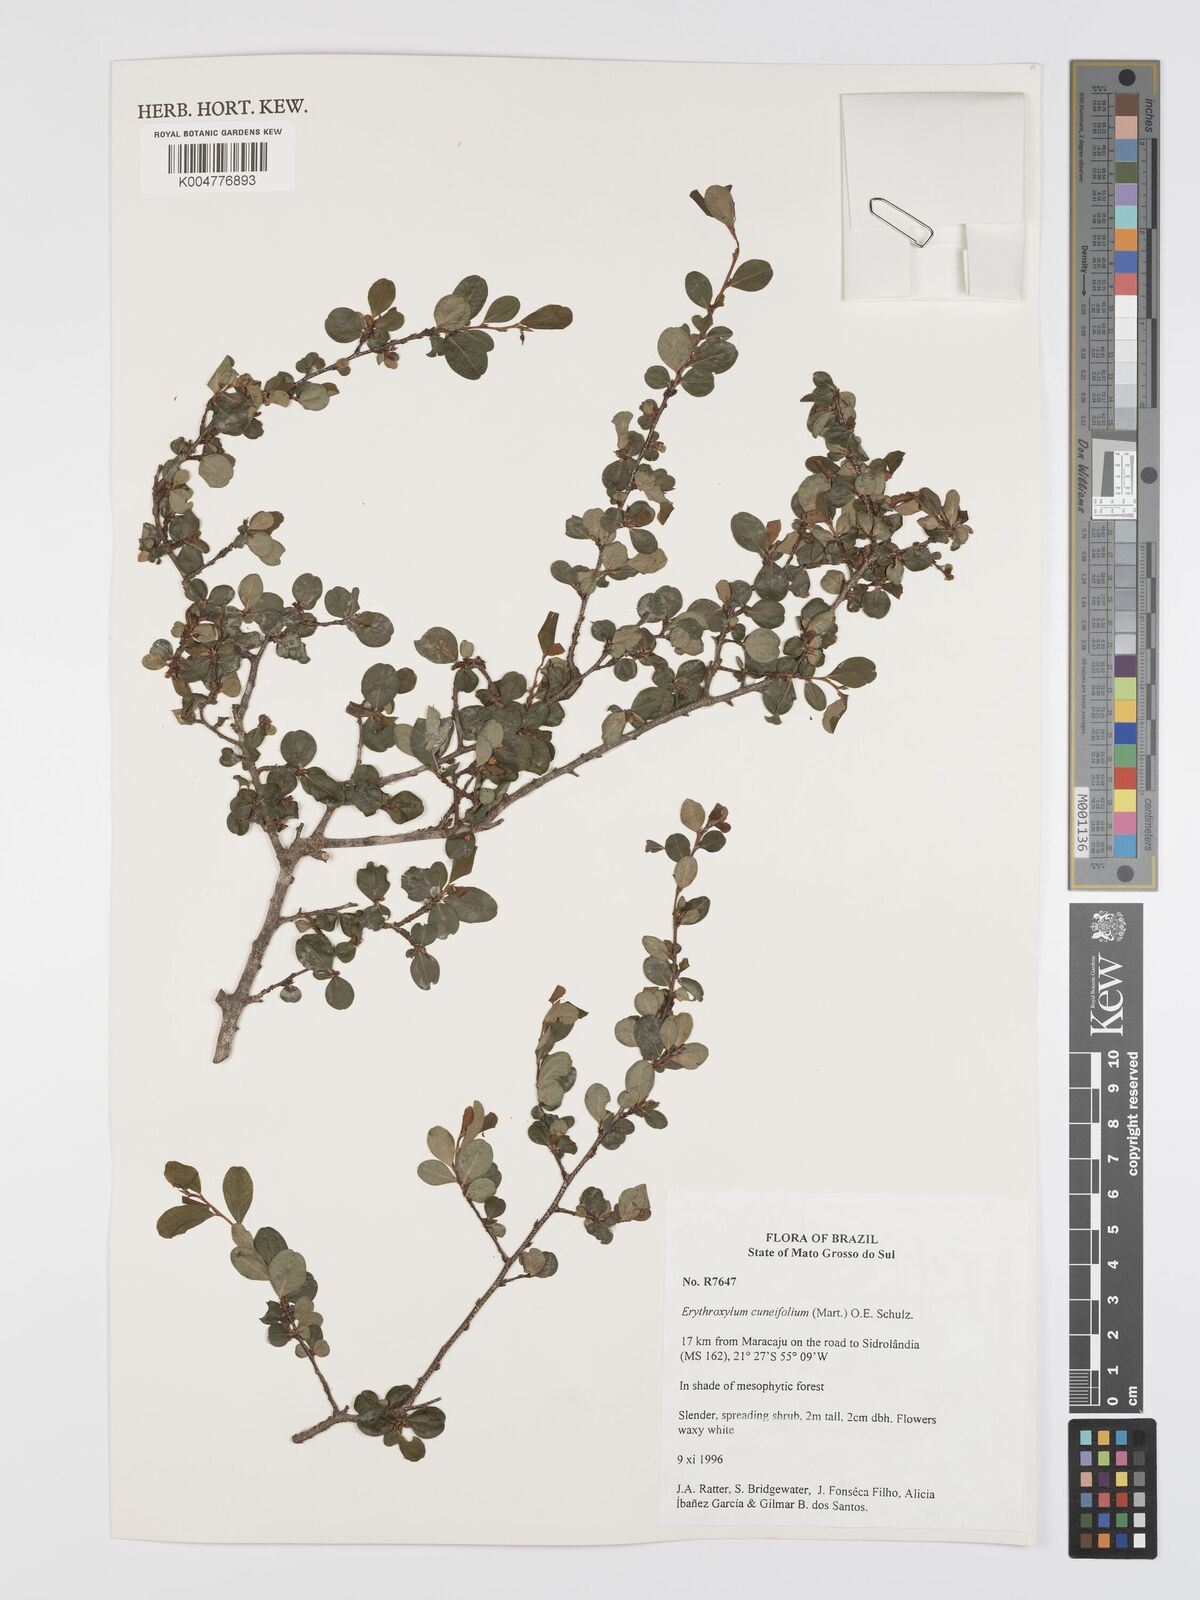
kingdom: Plantae
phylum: Tracheophyta
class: Magnoliopsida
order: Malpighiales
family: Erythroxylaceae
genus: Erythroxylum
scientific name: Erythroxylum cuneifolium
